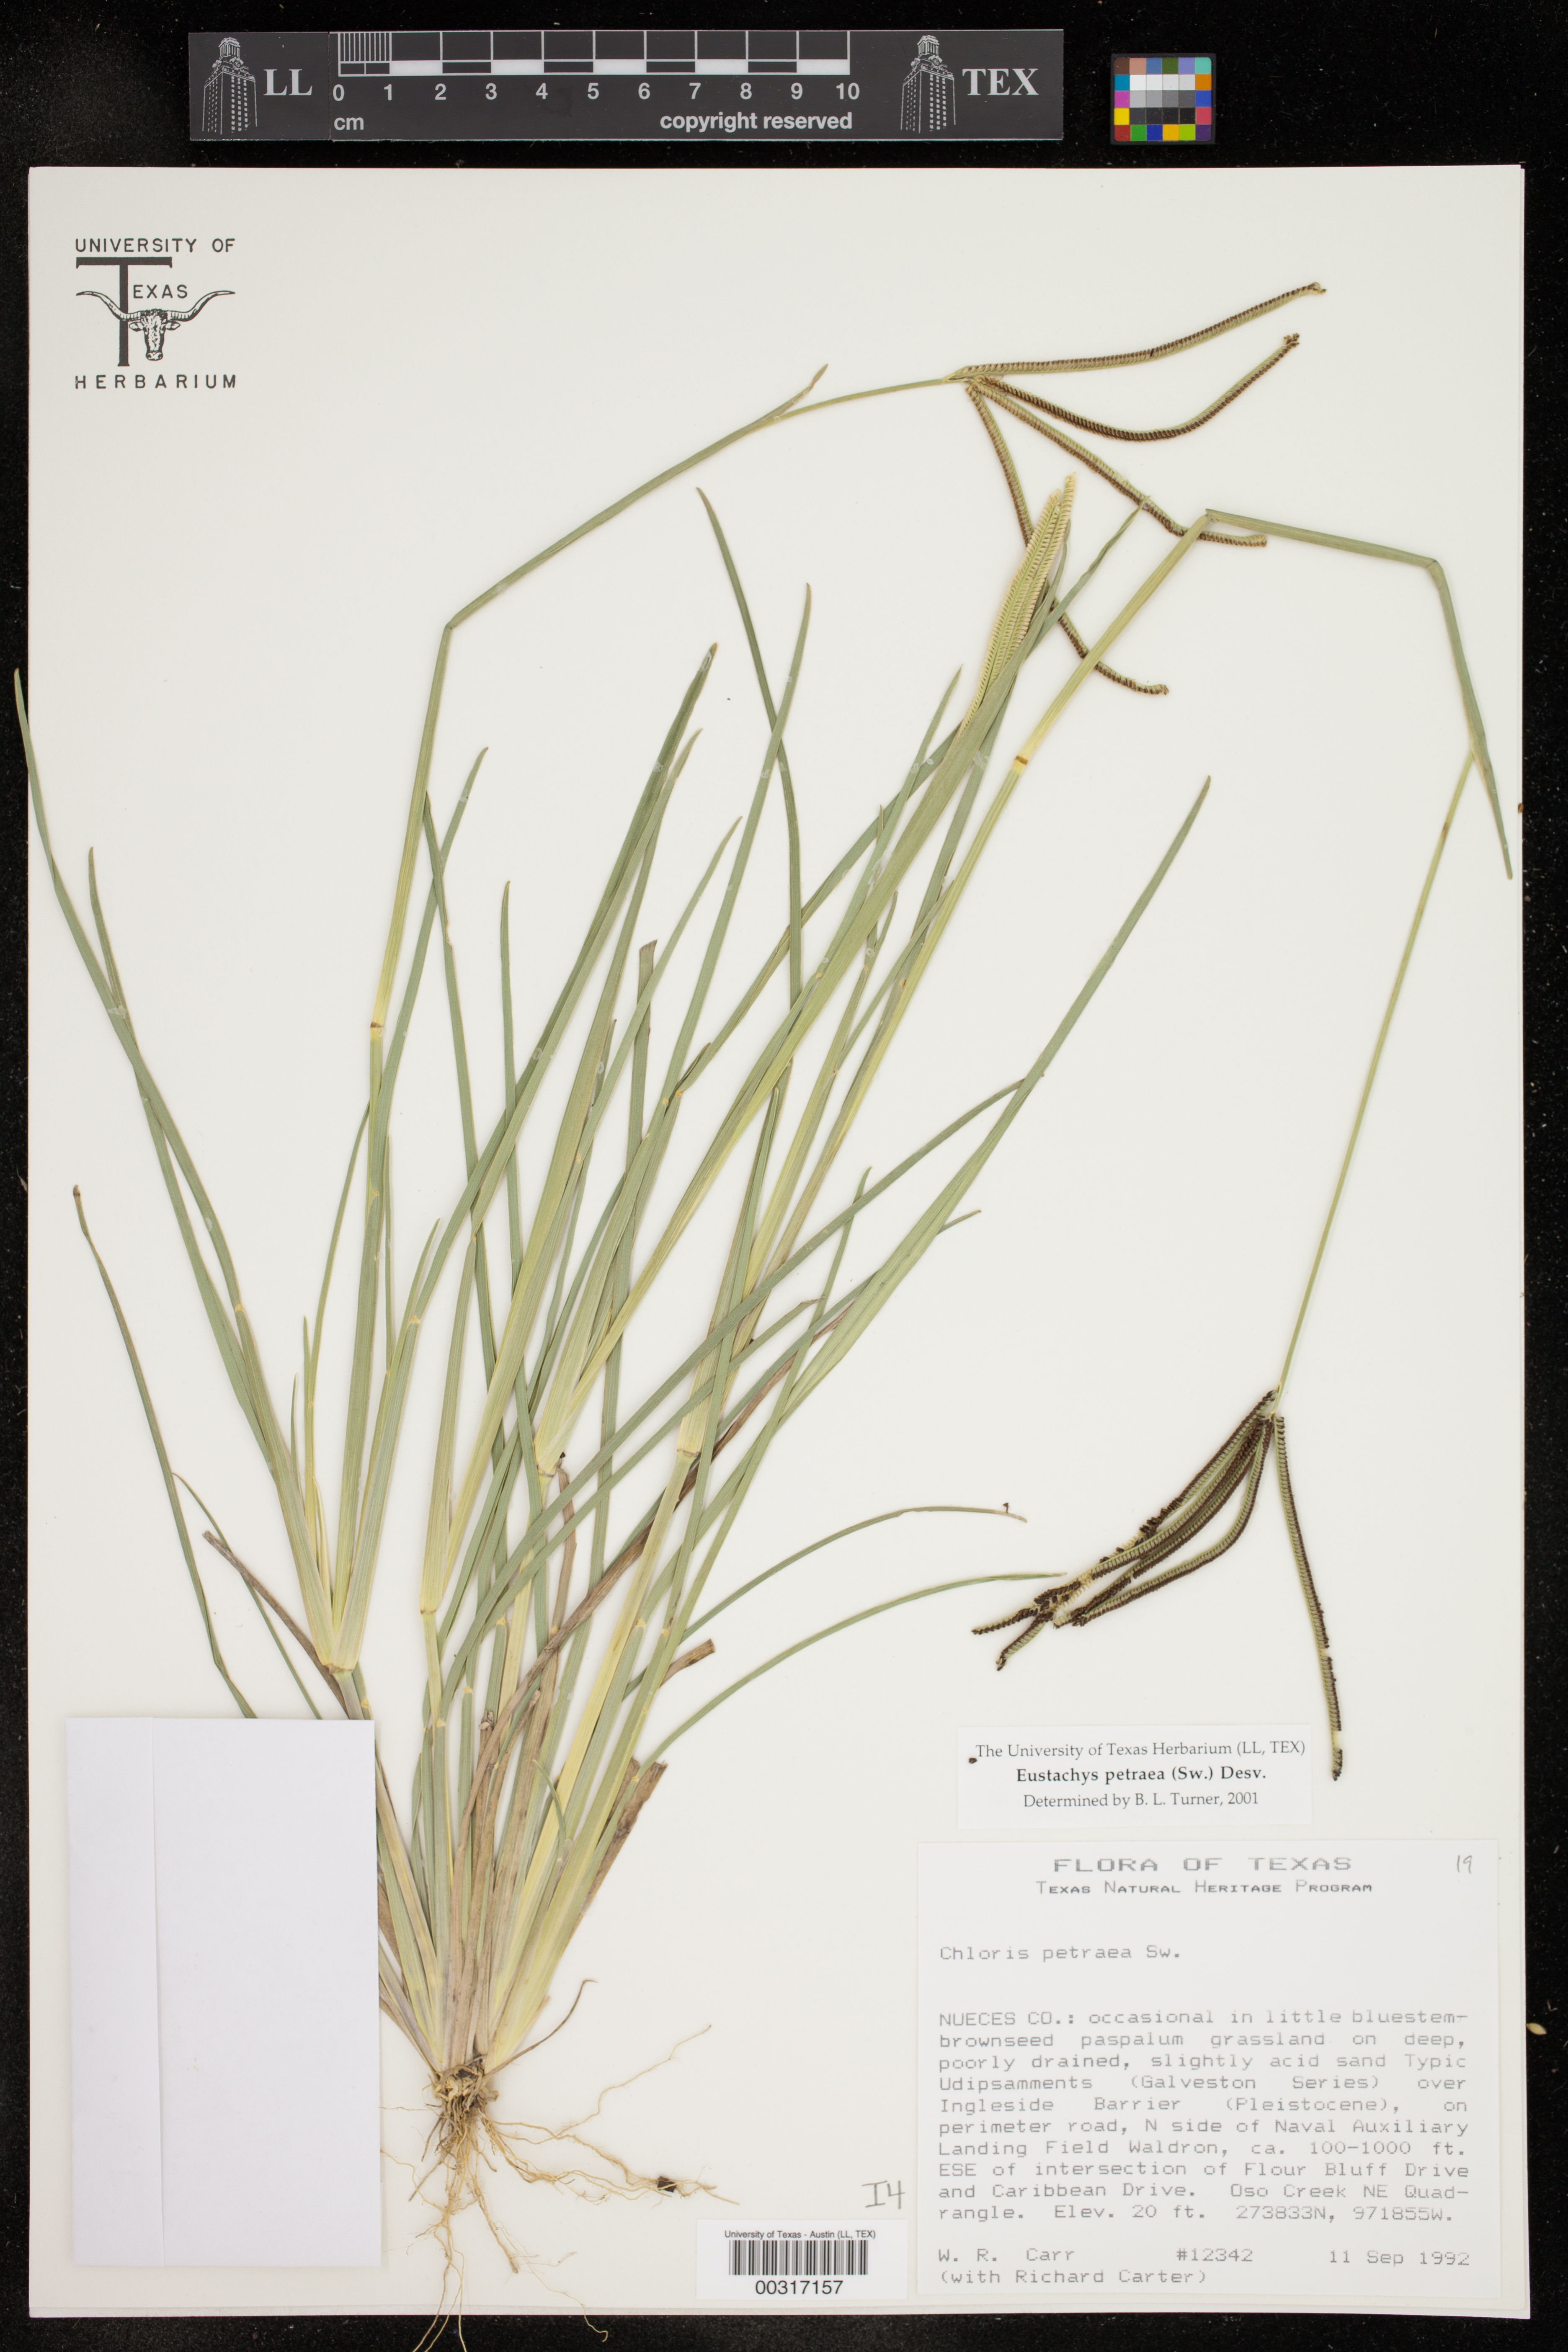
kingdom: Plantae
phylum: Tracheophyta
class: Liliopsida
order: Poales
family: Poaceae
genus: Eustachys
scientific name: Eustachys petraea
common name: Pinewoods fingergrass
